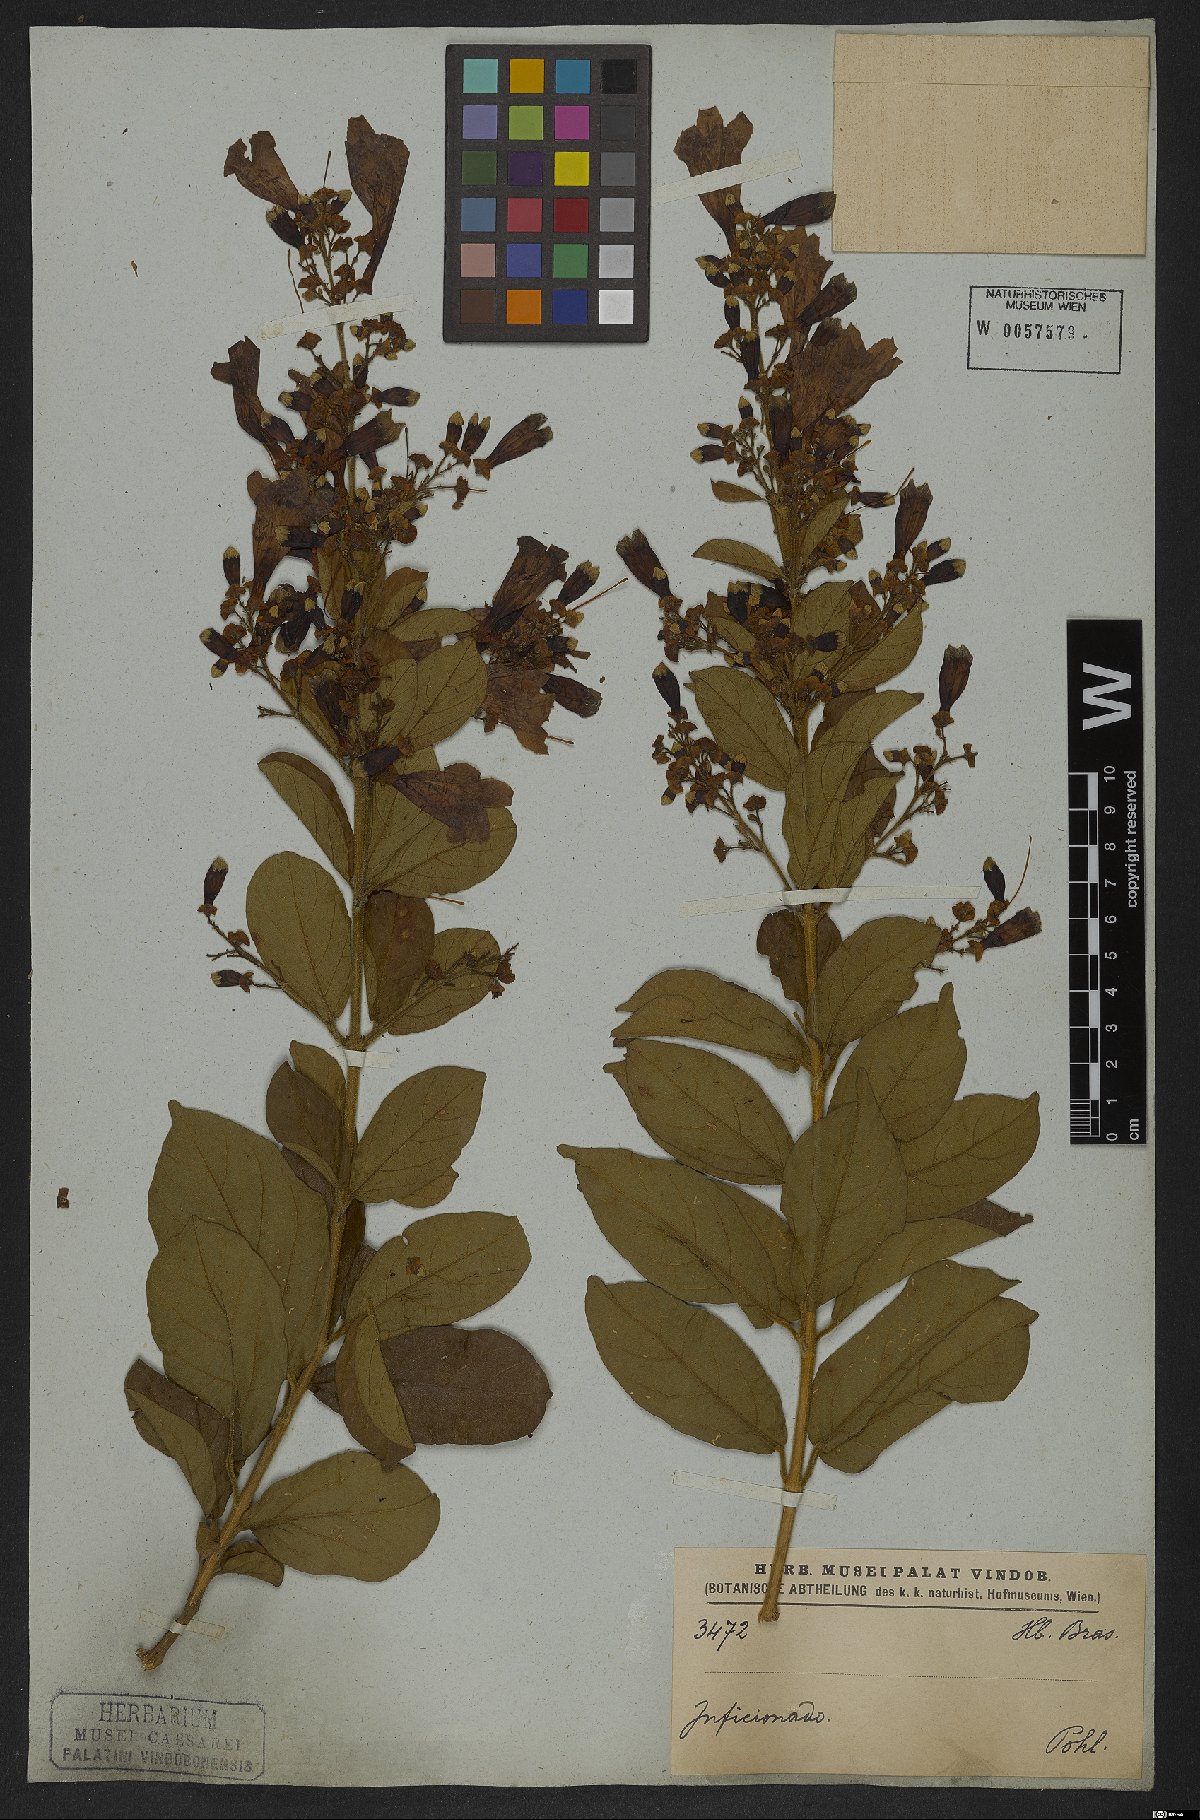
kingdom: Plantae
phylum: Tracheophyta
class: Magnoliopsida
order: Lamiales
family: Bignoniaceae
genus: Fridericia
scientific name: Fridericia samydoides
